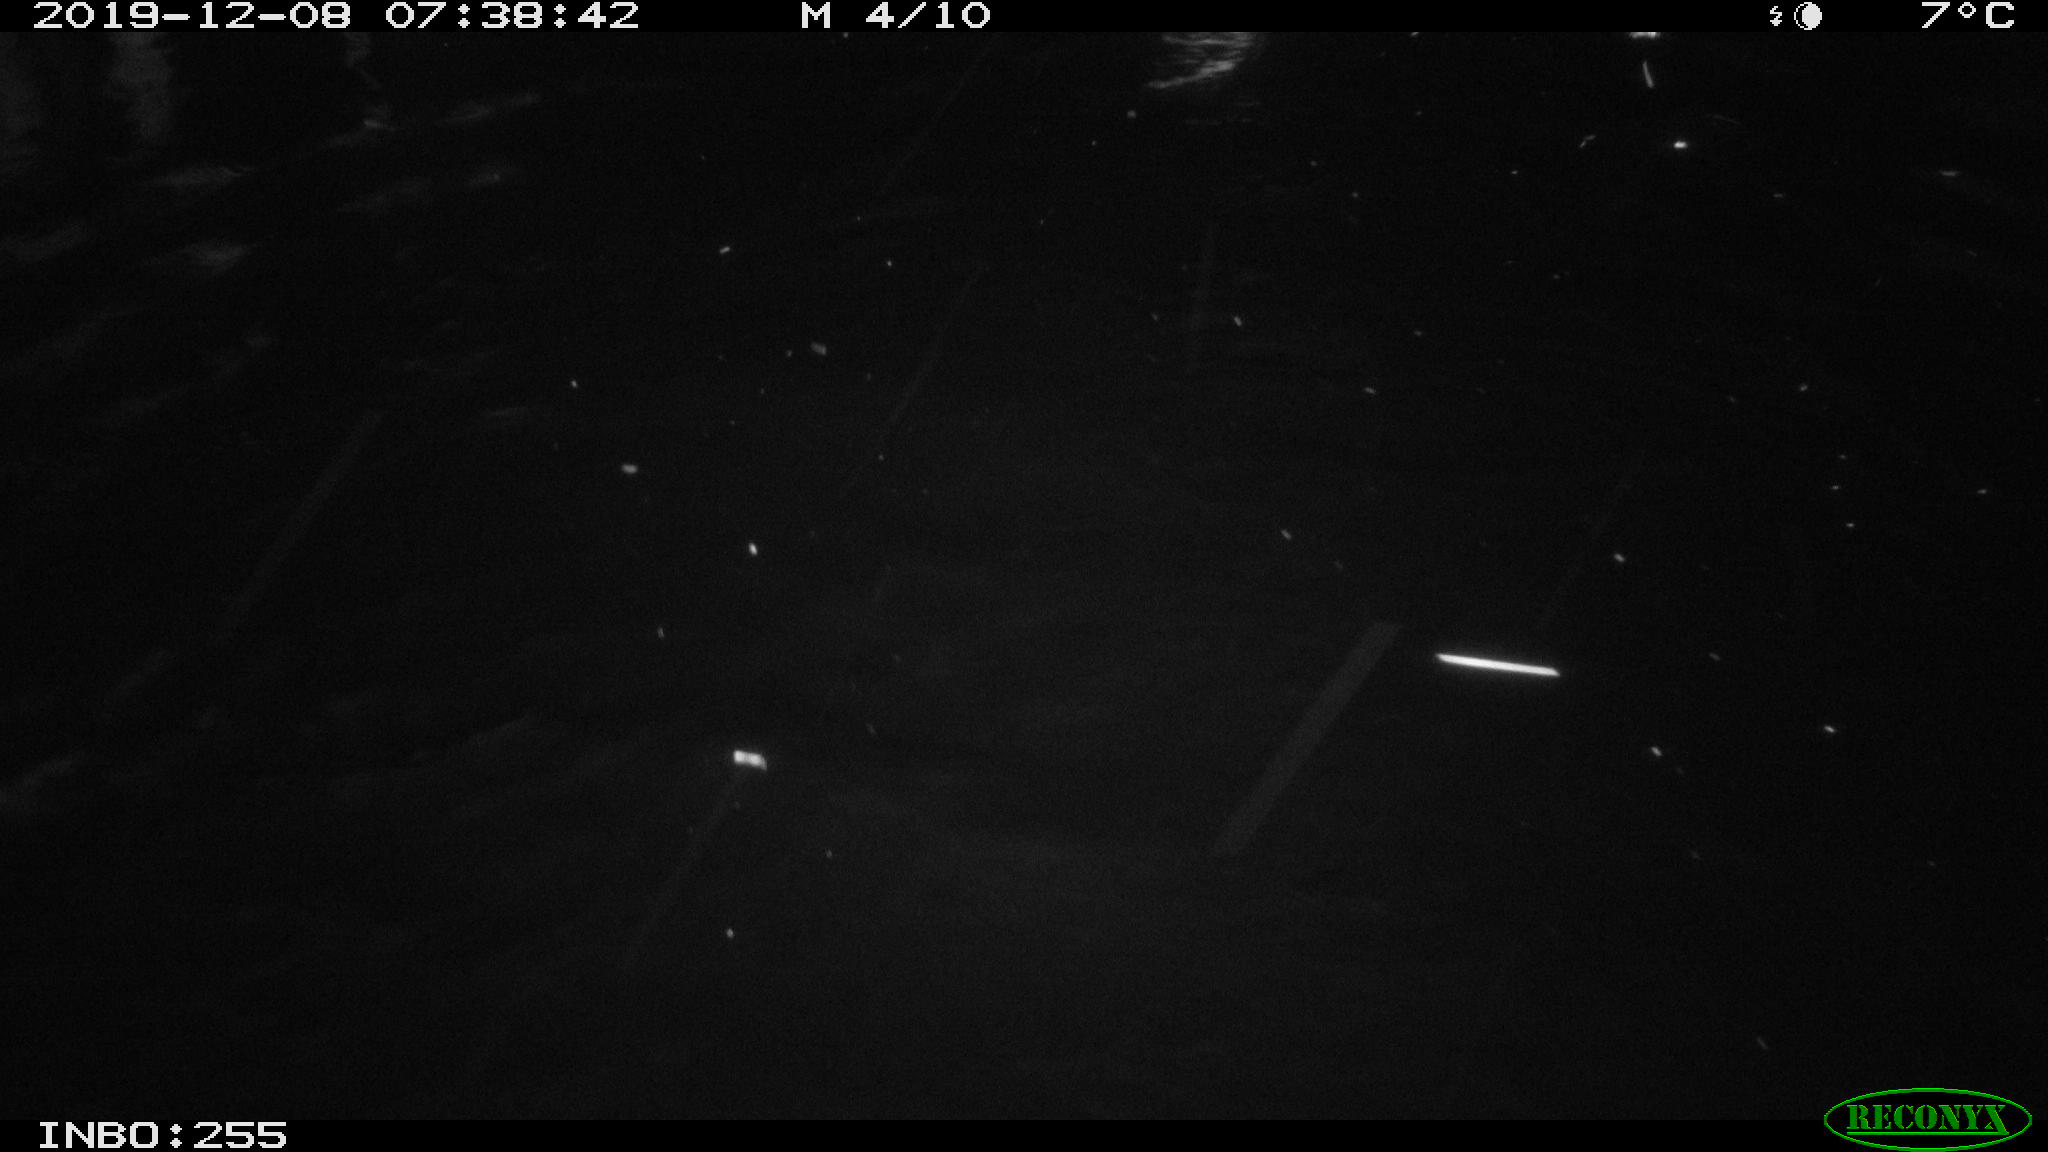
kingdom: Animalia
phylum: Chordata
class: Aves
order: Anseriformes
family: Anatidae
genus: Anas
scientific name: Anas platyrhynchos
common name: Mallard
